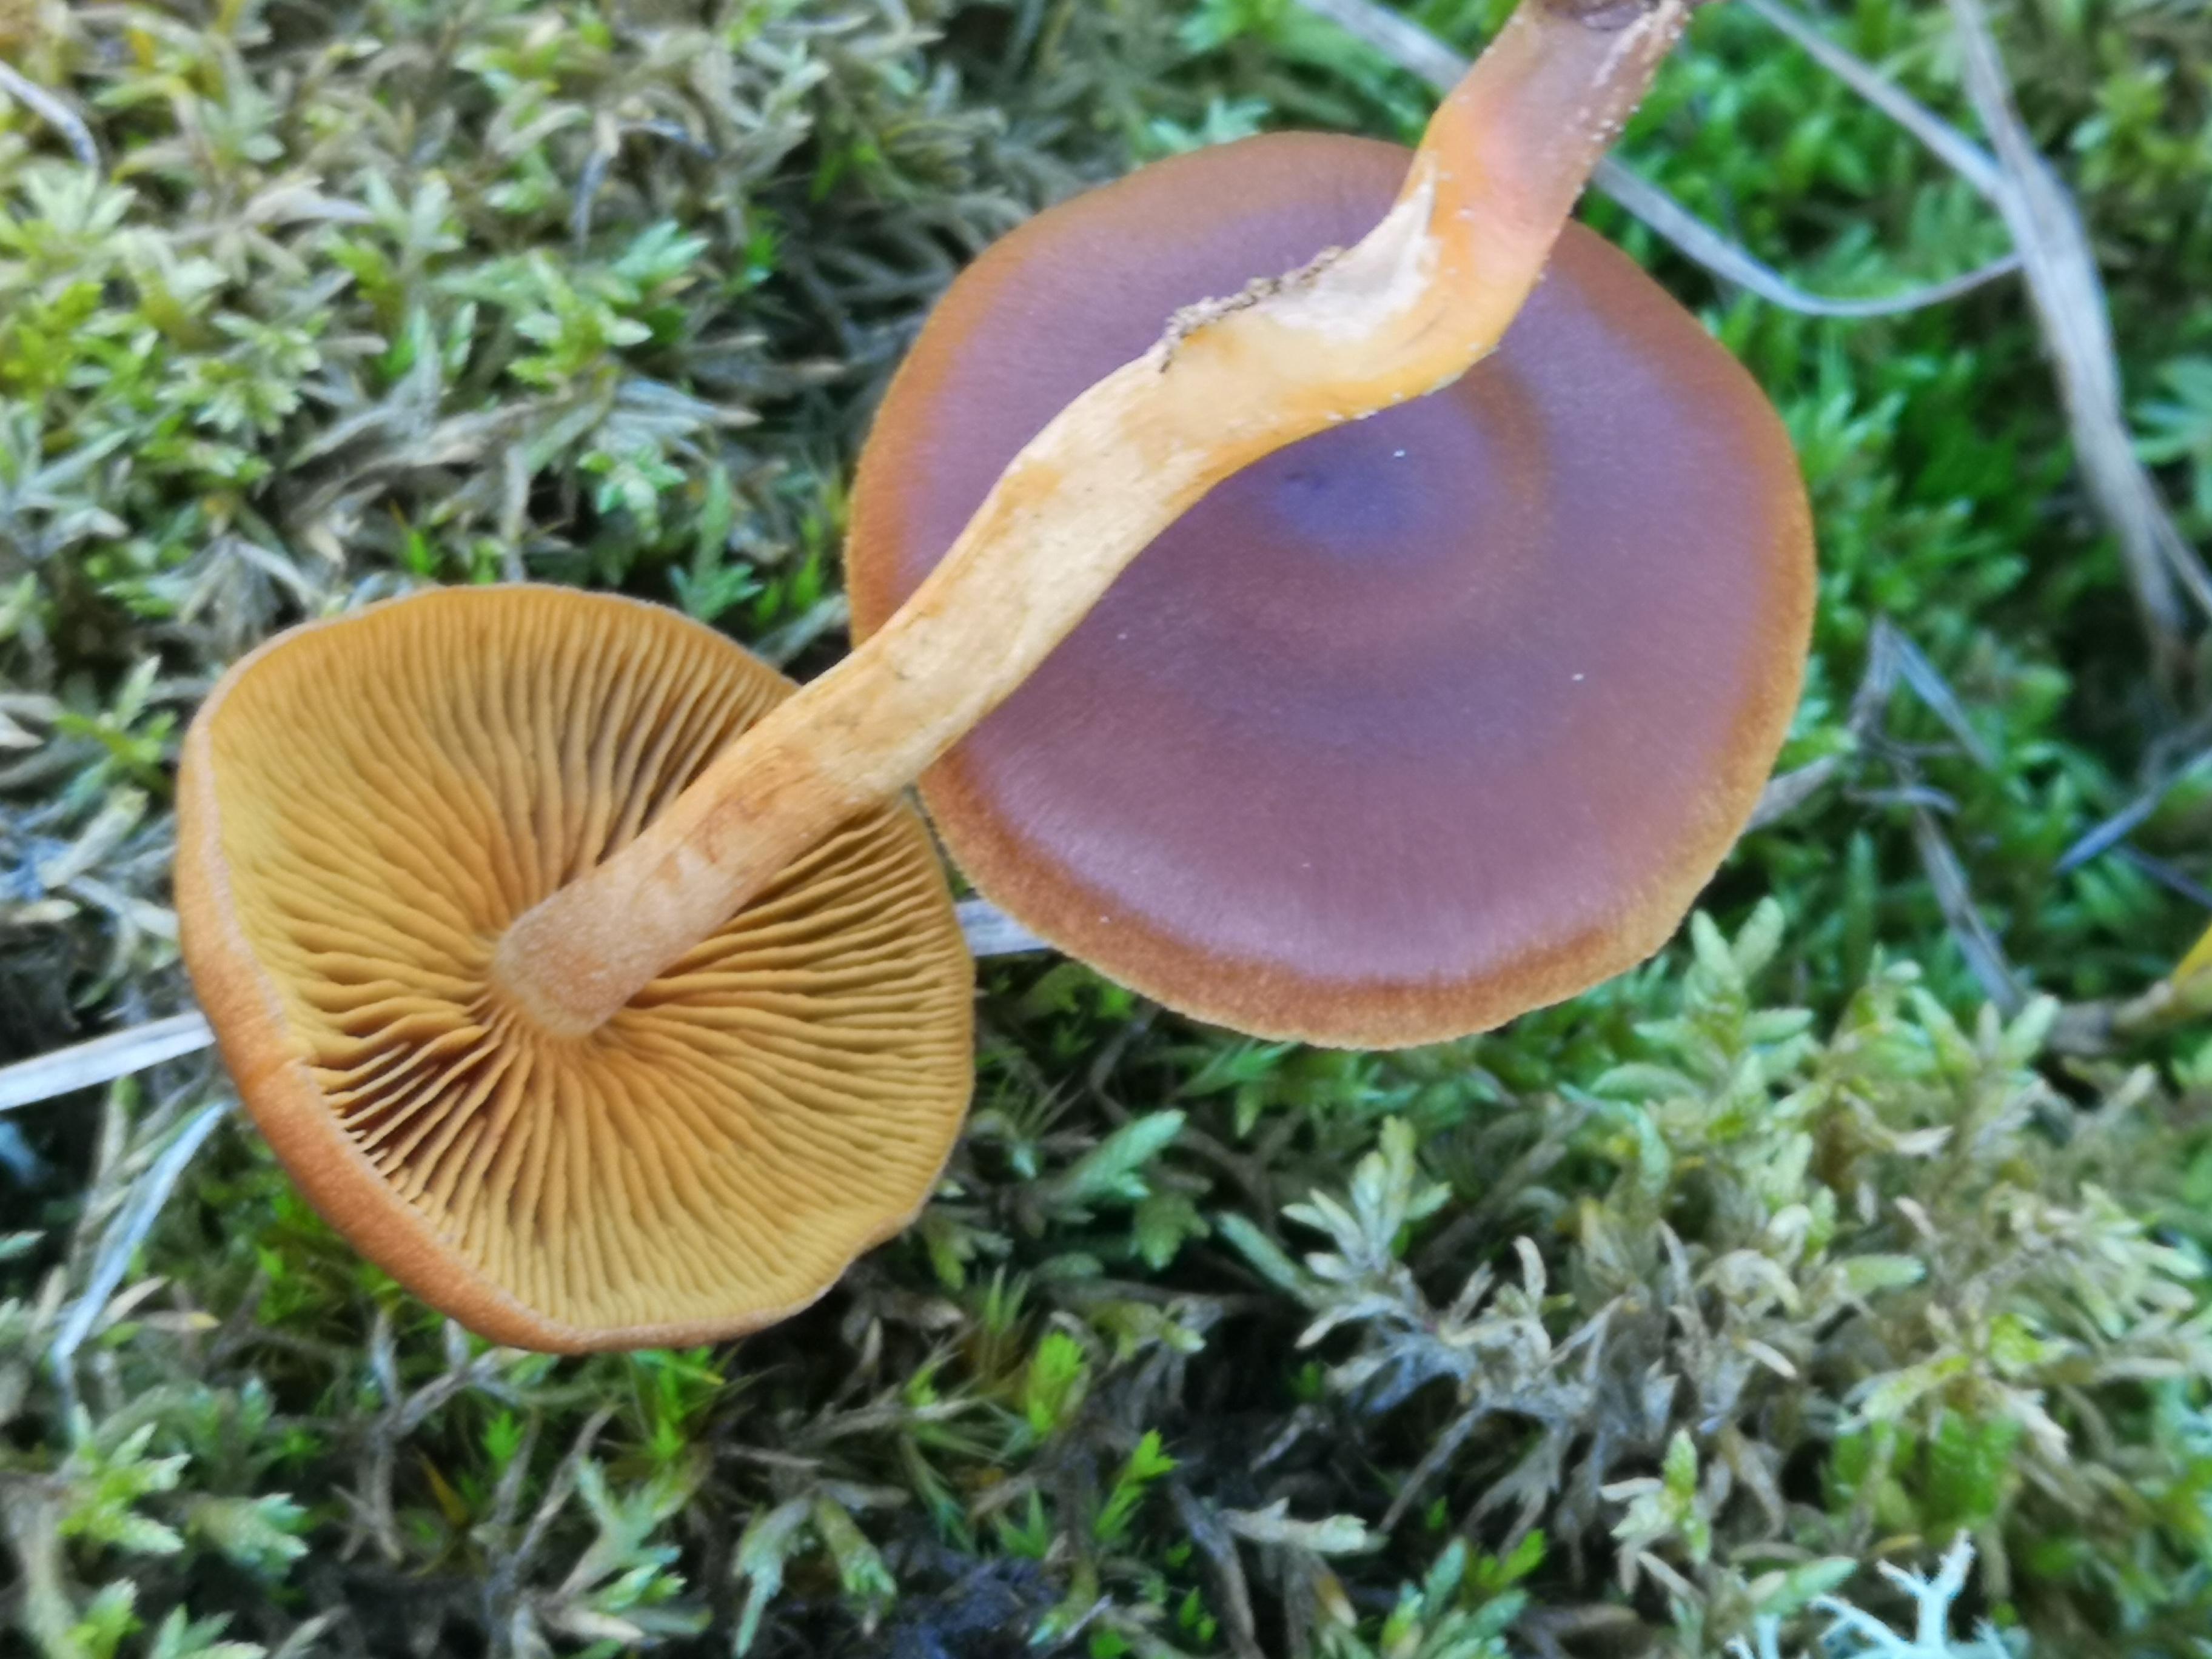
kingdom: Fungi
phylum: Basidiomycota
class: Agaricomycetes
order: Agaricales
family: Cortinariaceae
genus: Cortinarius
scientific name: Cortinarius
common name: gulbladet slørhat
